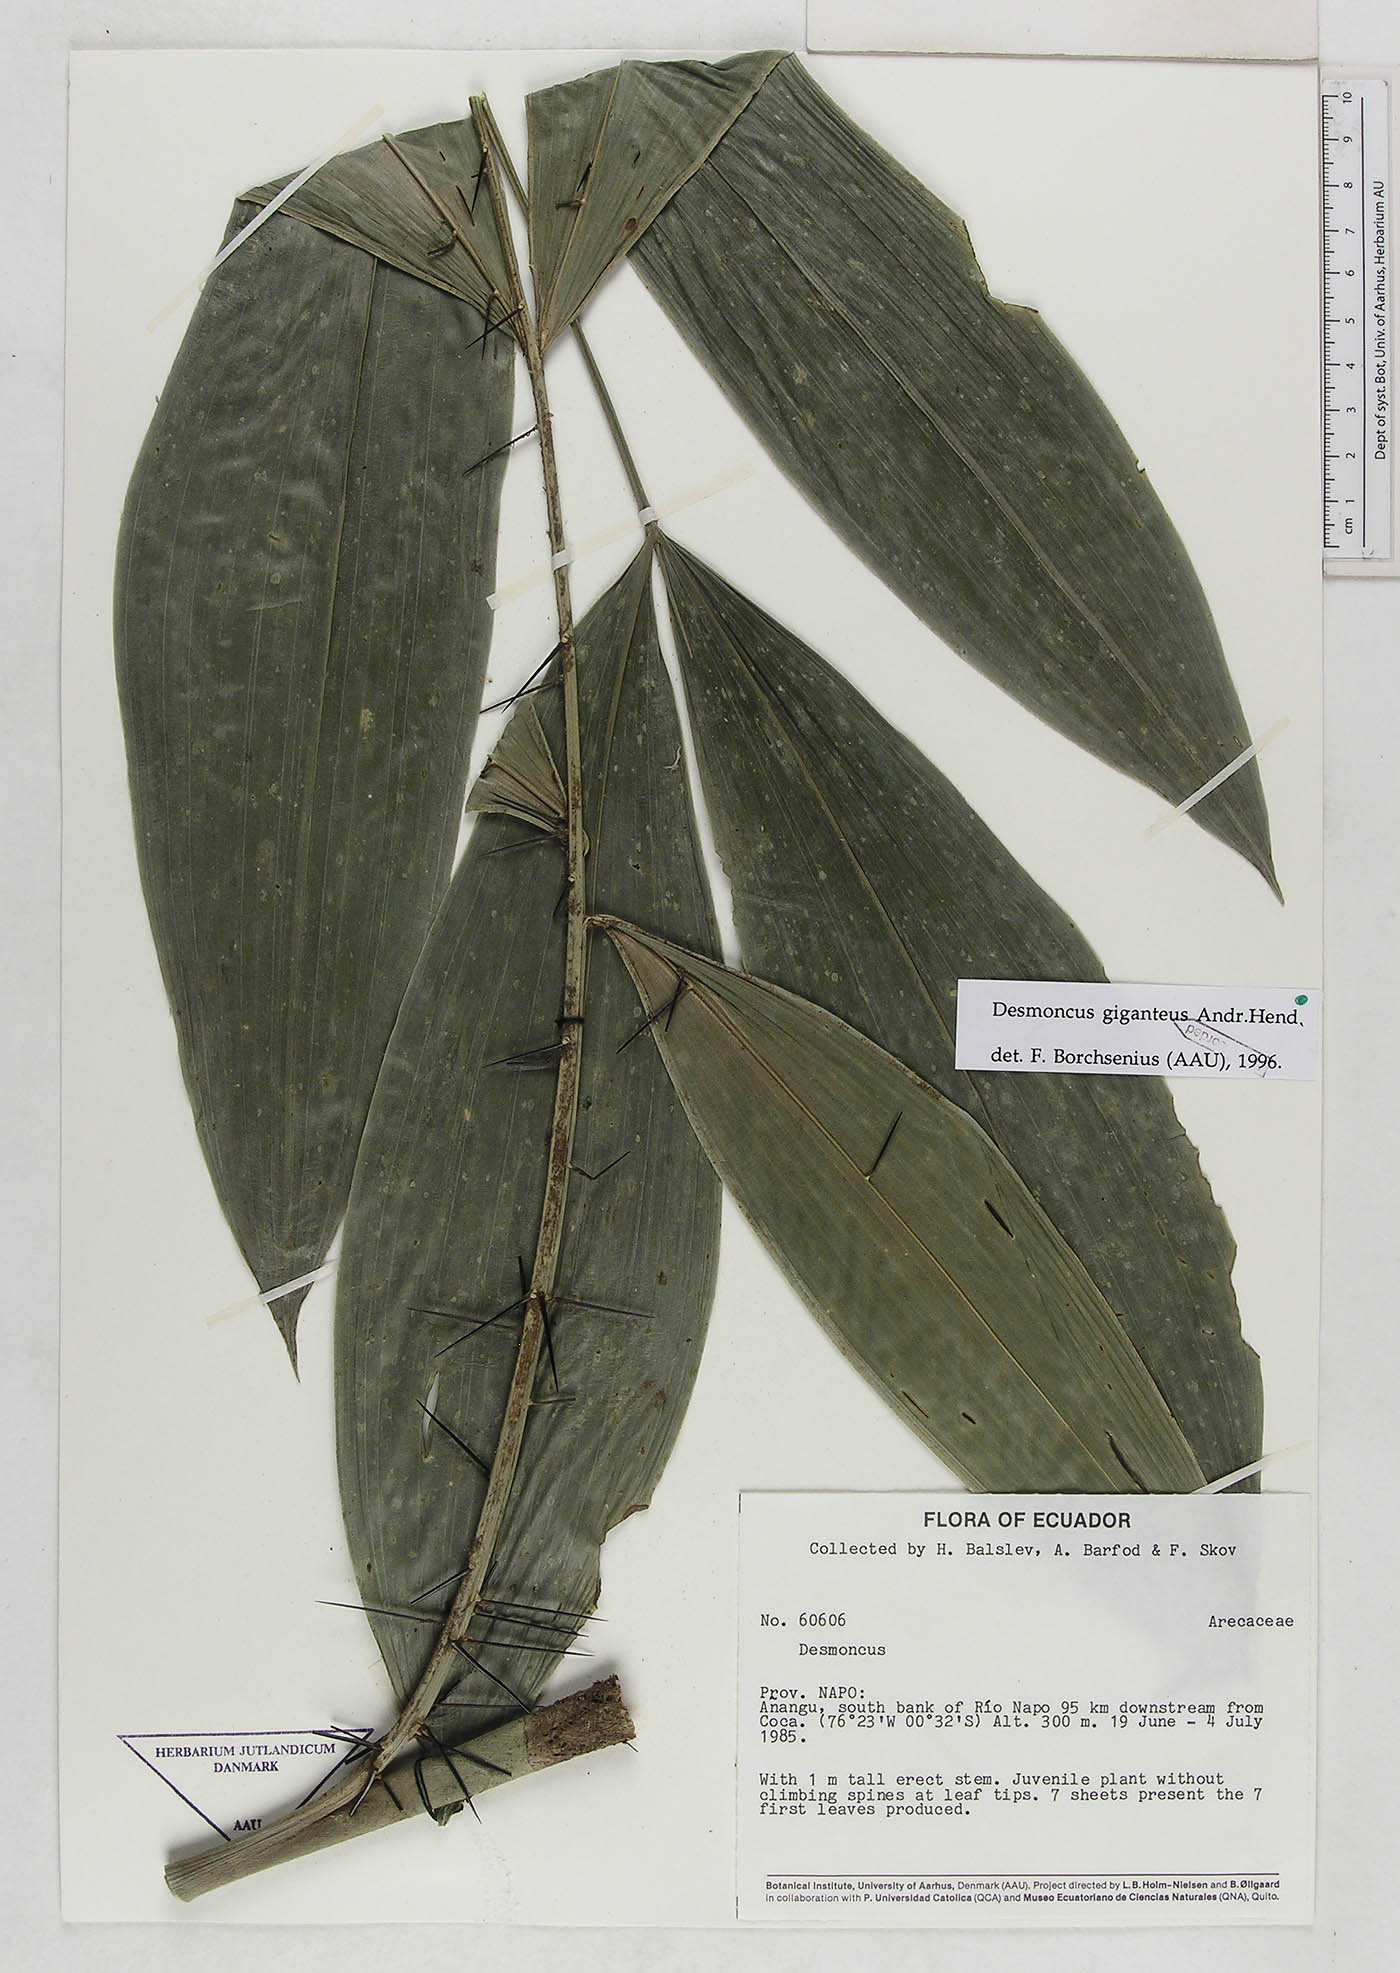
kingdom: Plantae
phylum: Tracheophyta
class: Liliopsida
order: Arecales
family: Arecaceae
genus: Desmoncus
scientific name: Desmoncus giganteus
